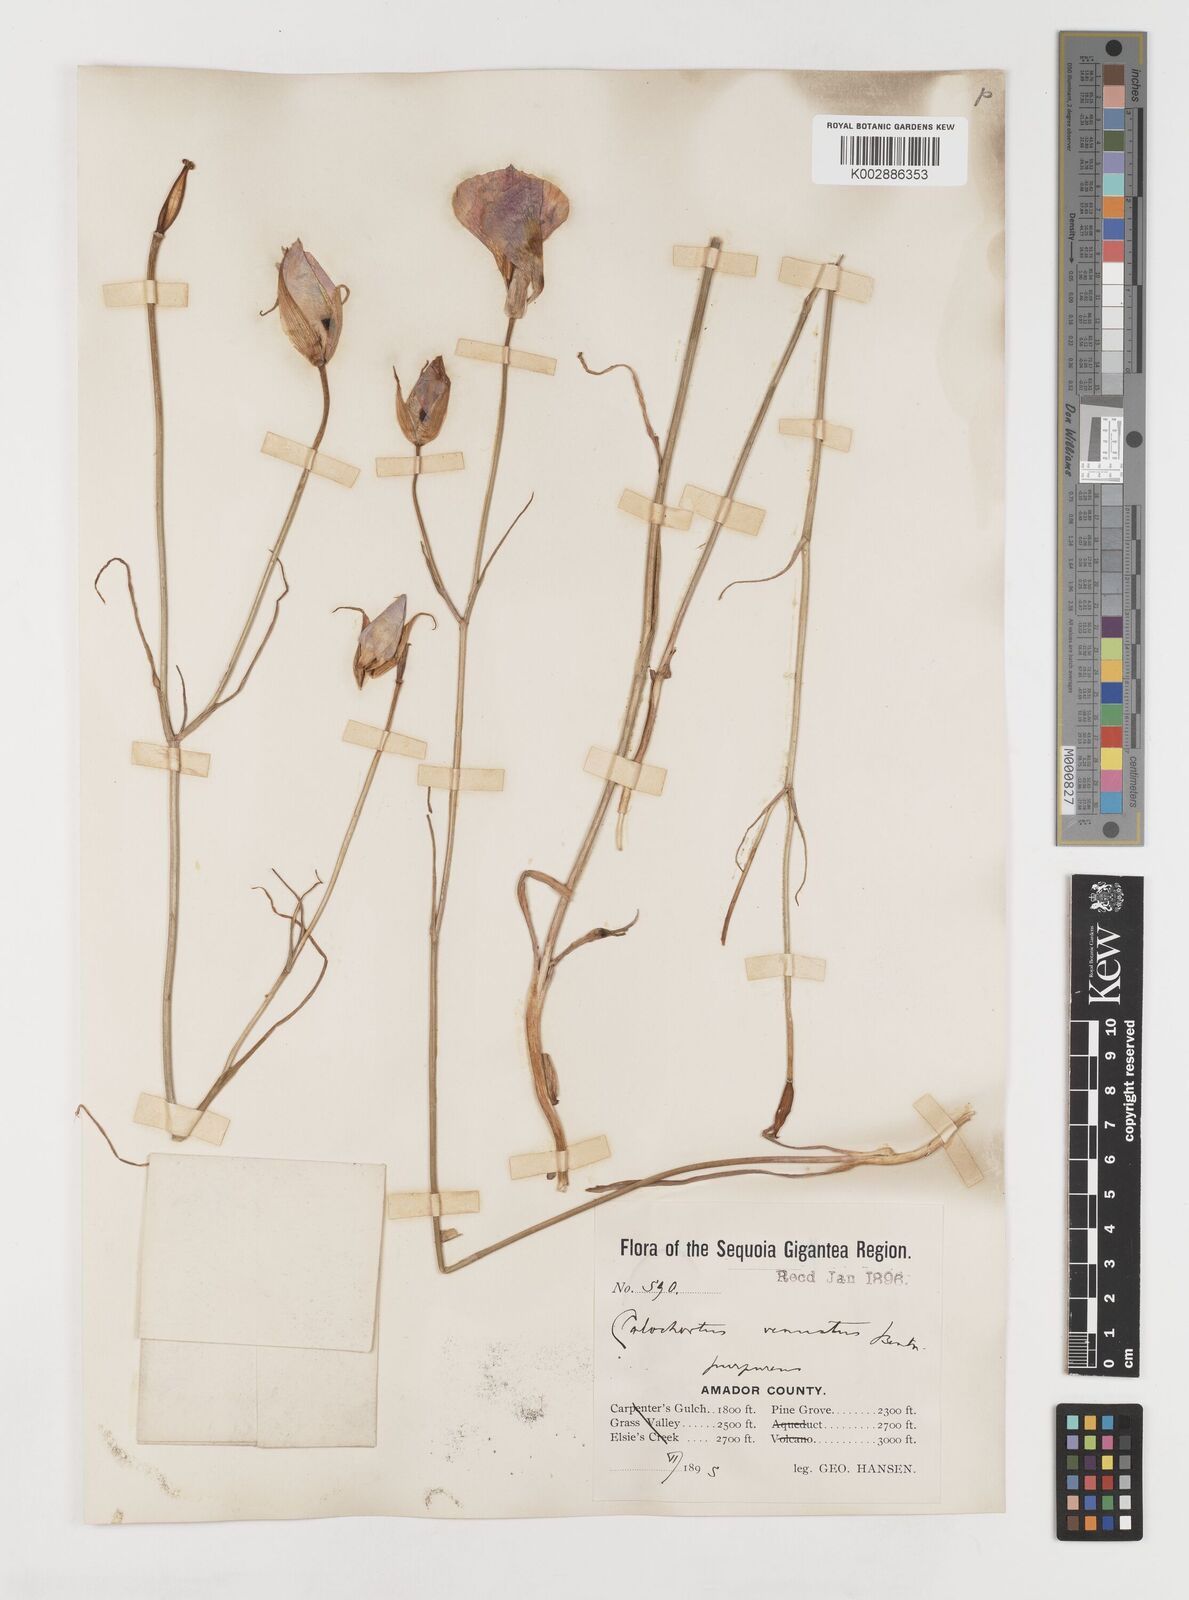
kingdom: Plantae
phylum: Tracheophyta
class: Liliopsida
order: Liliales
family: Liliaceae
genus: Calochortus
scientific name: Calochortus venustus
